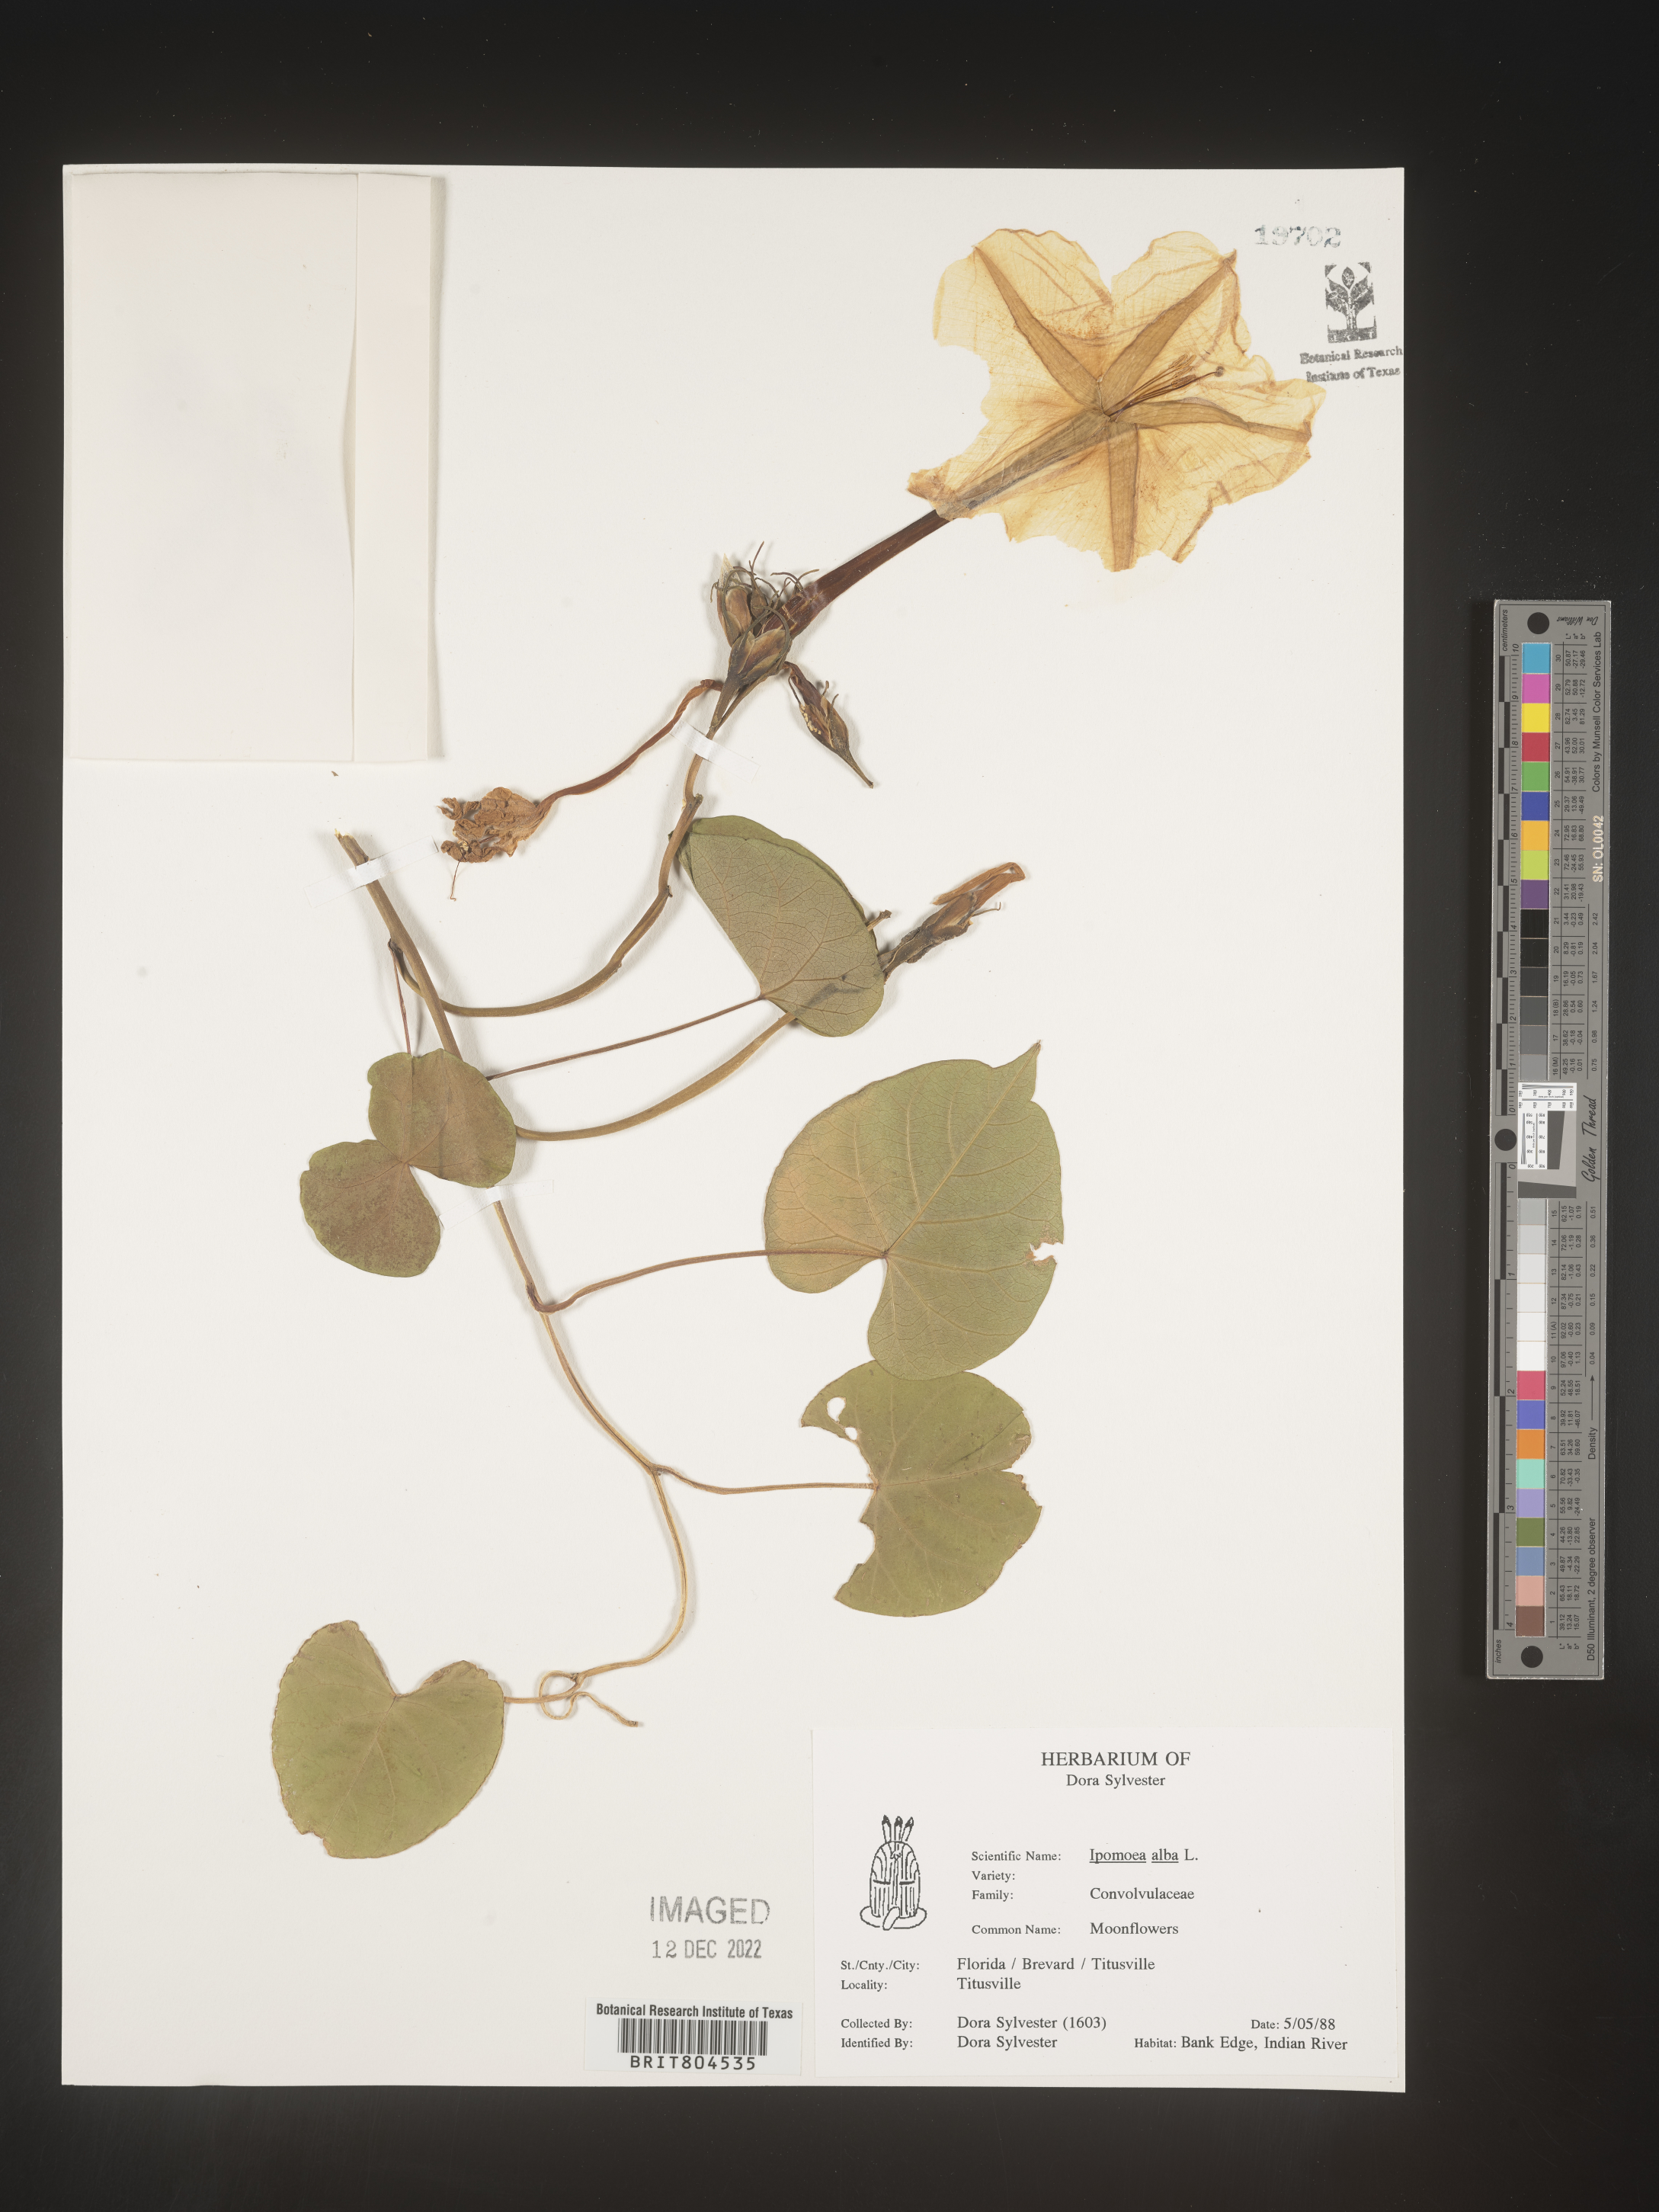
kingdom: Plantae
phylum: Tracheophyta
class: Magnoliopsida
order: Solanales
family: Convolvulaceae
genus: Ipomoea
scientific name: Ipomoea alba
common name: Moonflower
